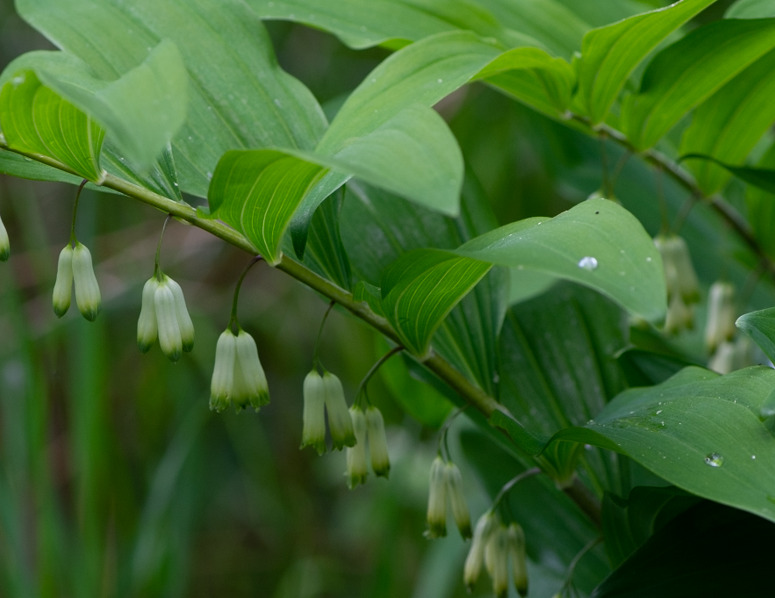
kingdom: Plantae
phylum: Tracheophyta
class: Liliopsida
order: Asparagales
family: Asparagaceae
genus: Polygonatum
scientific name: Polygonatum multiflorum
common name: Stor konval
